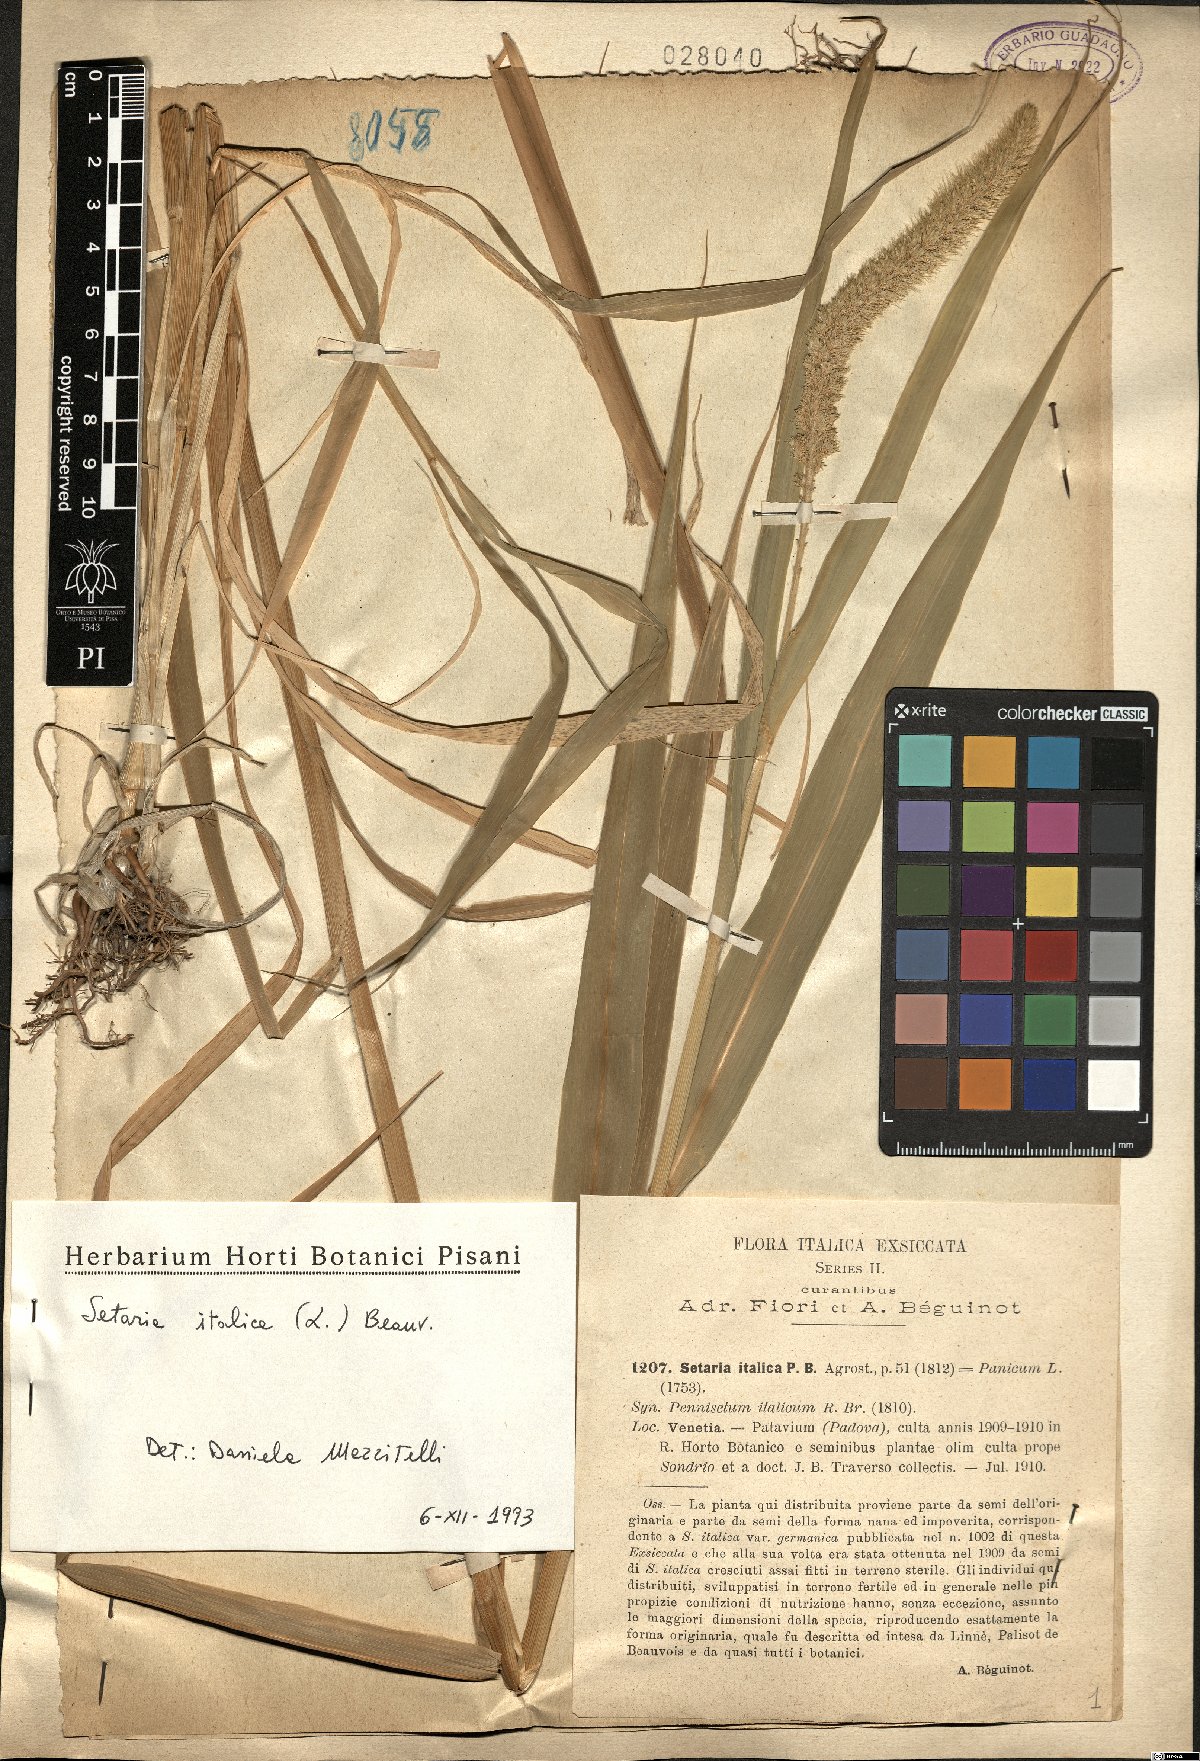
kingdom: Plantae
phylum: Tracheophyta
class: Liliopsida
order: Poales
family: Poaceae
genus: Setaria
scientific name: Setaria italica
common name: Foxtail bristle-grass
